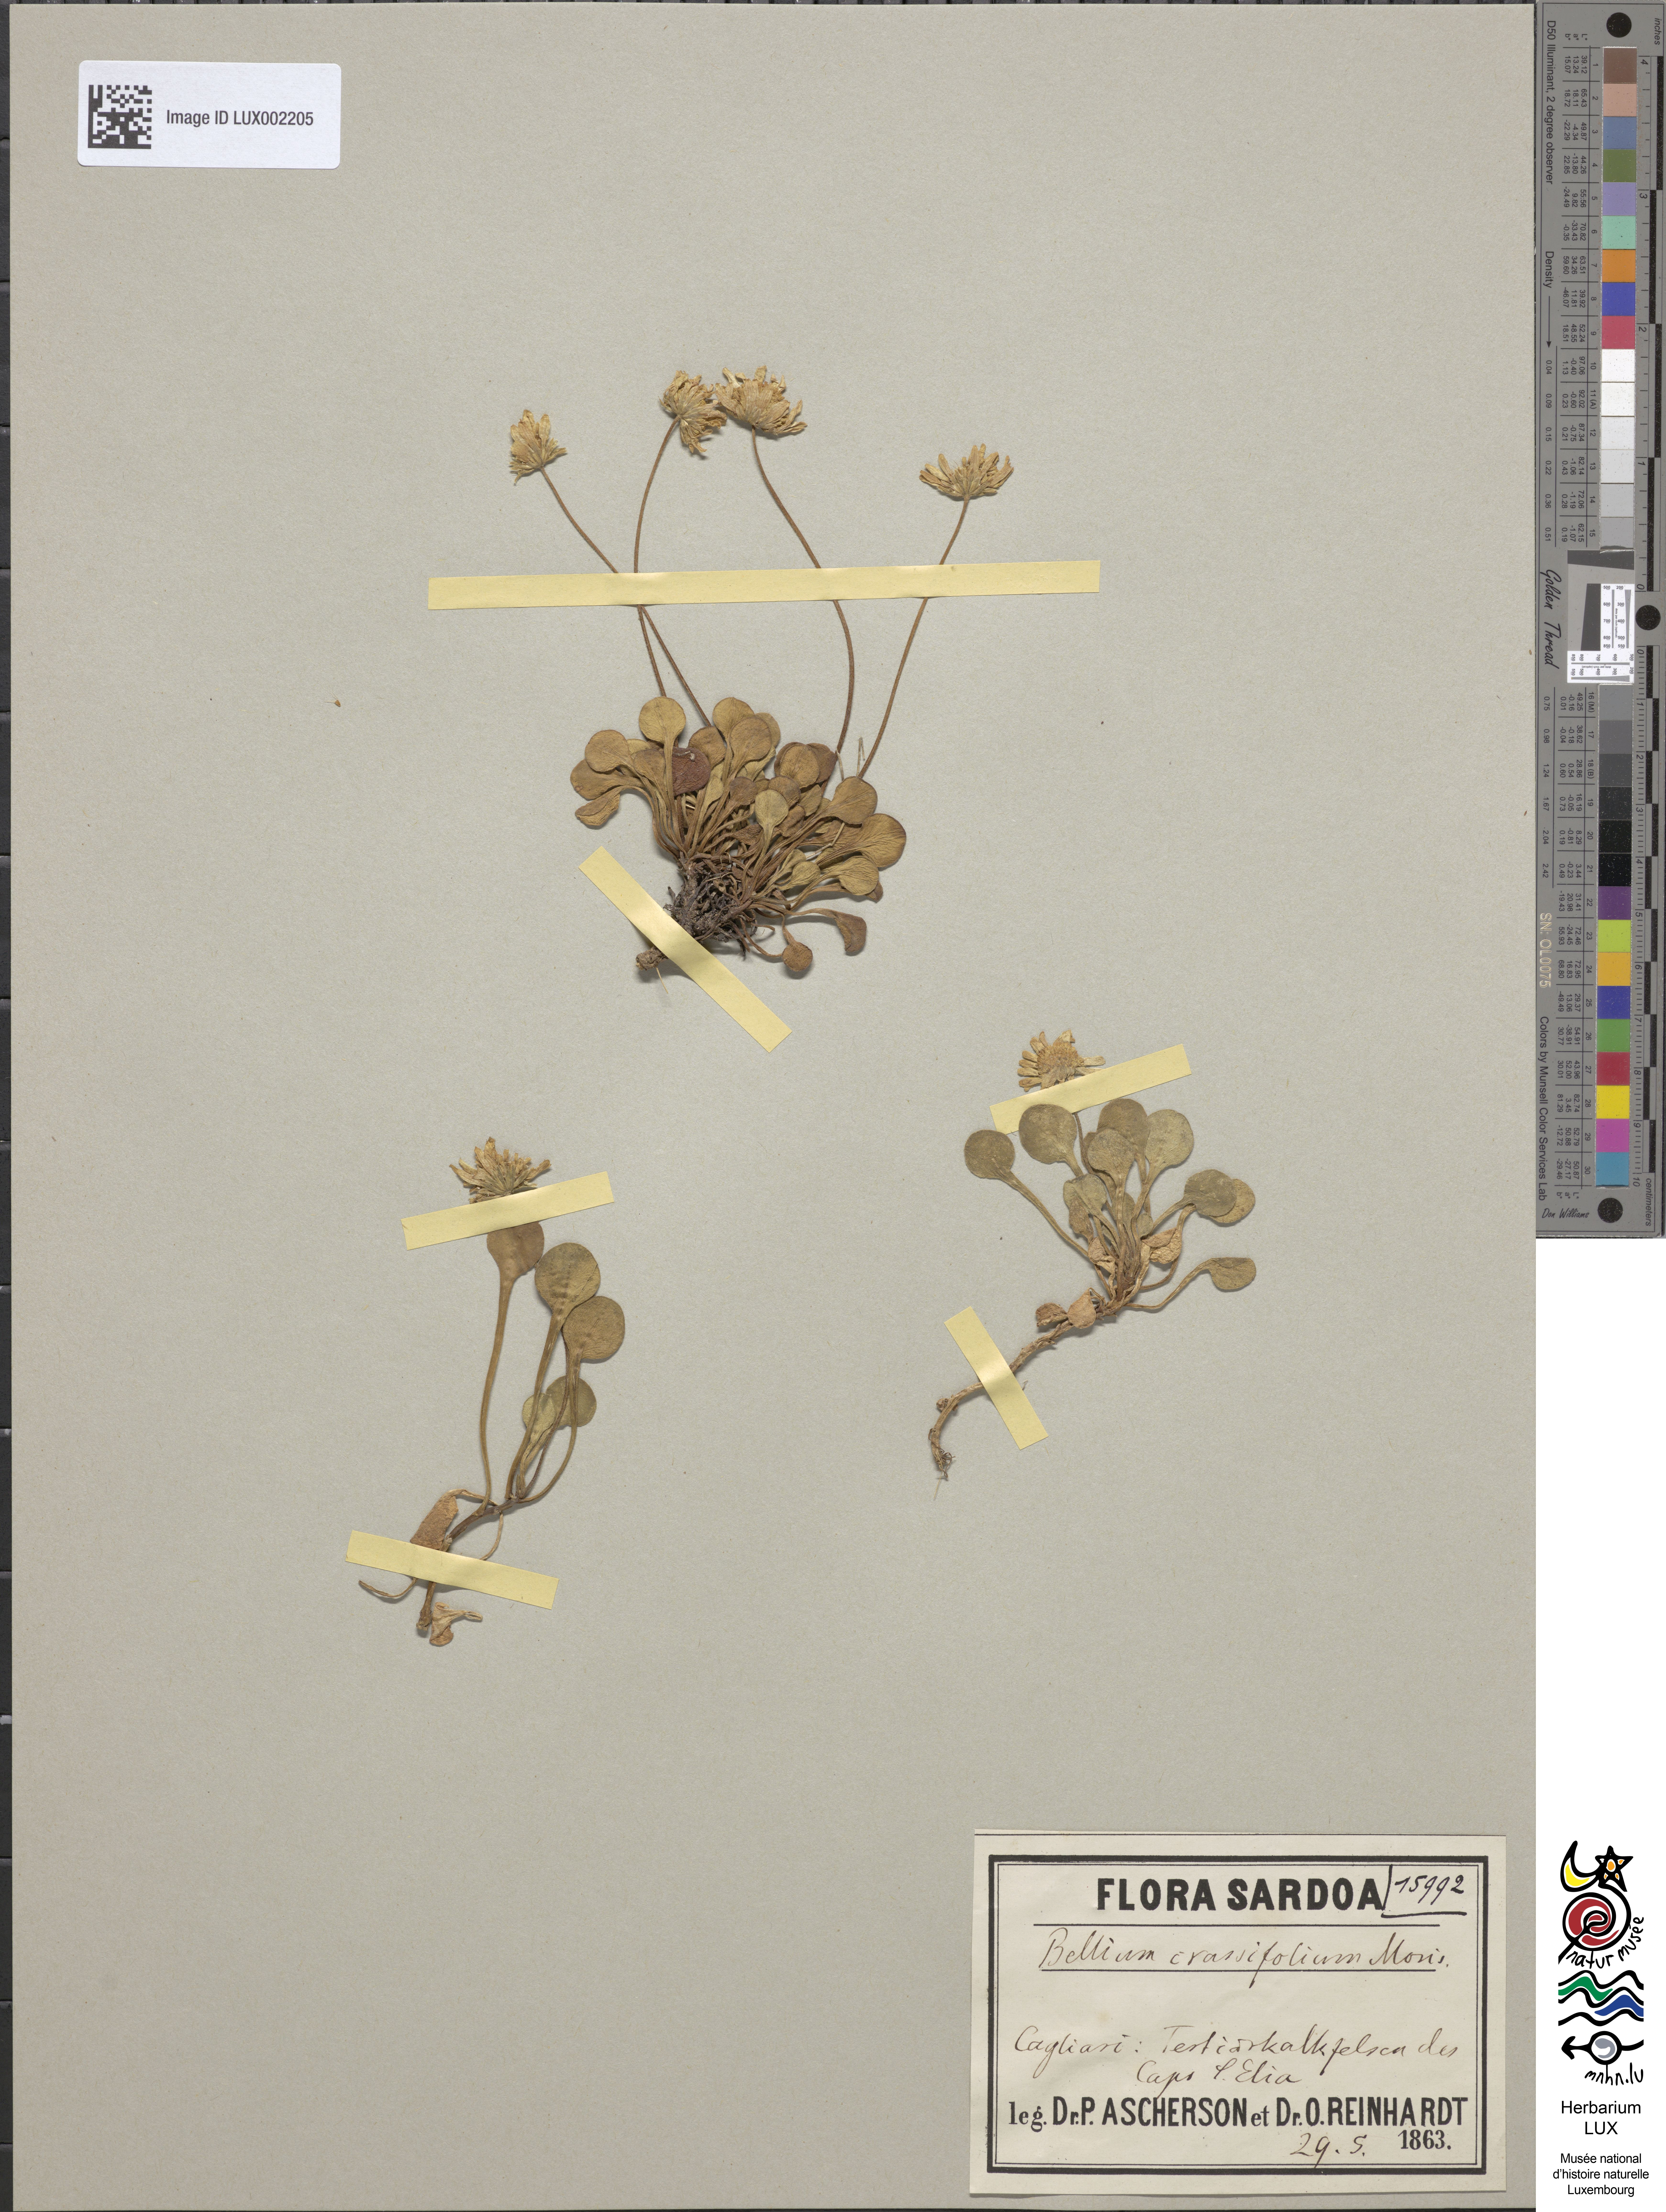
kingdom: Plantae
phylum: Tracheophyta
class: Magnoliopsida
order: Asterales
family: Asteraceae
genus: Bellium
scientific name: Bellium crassifolium
